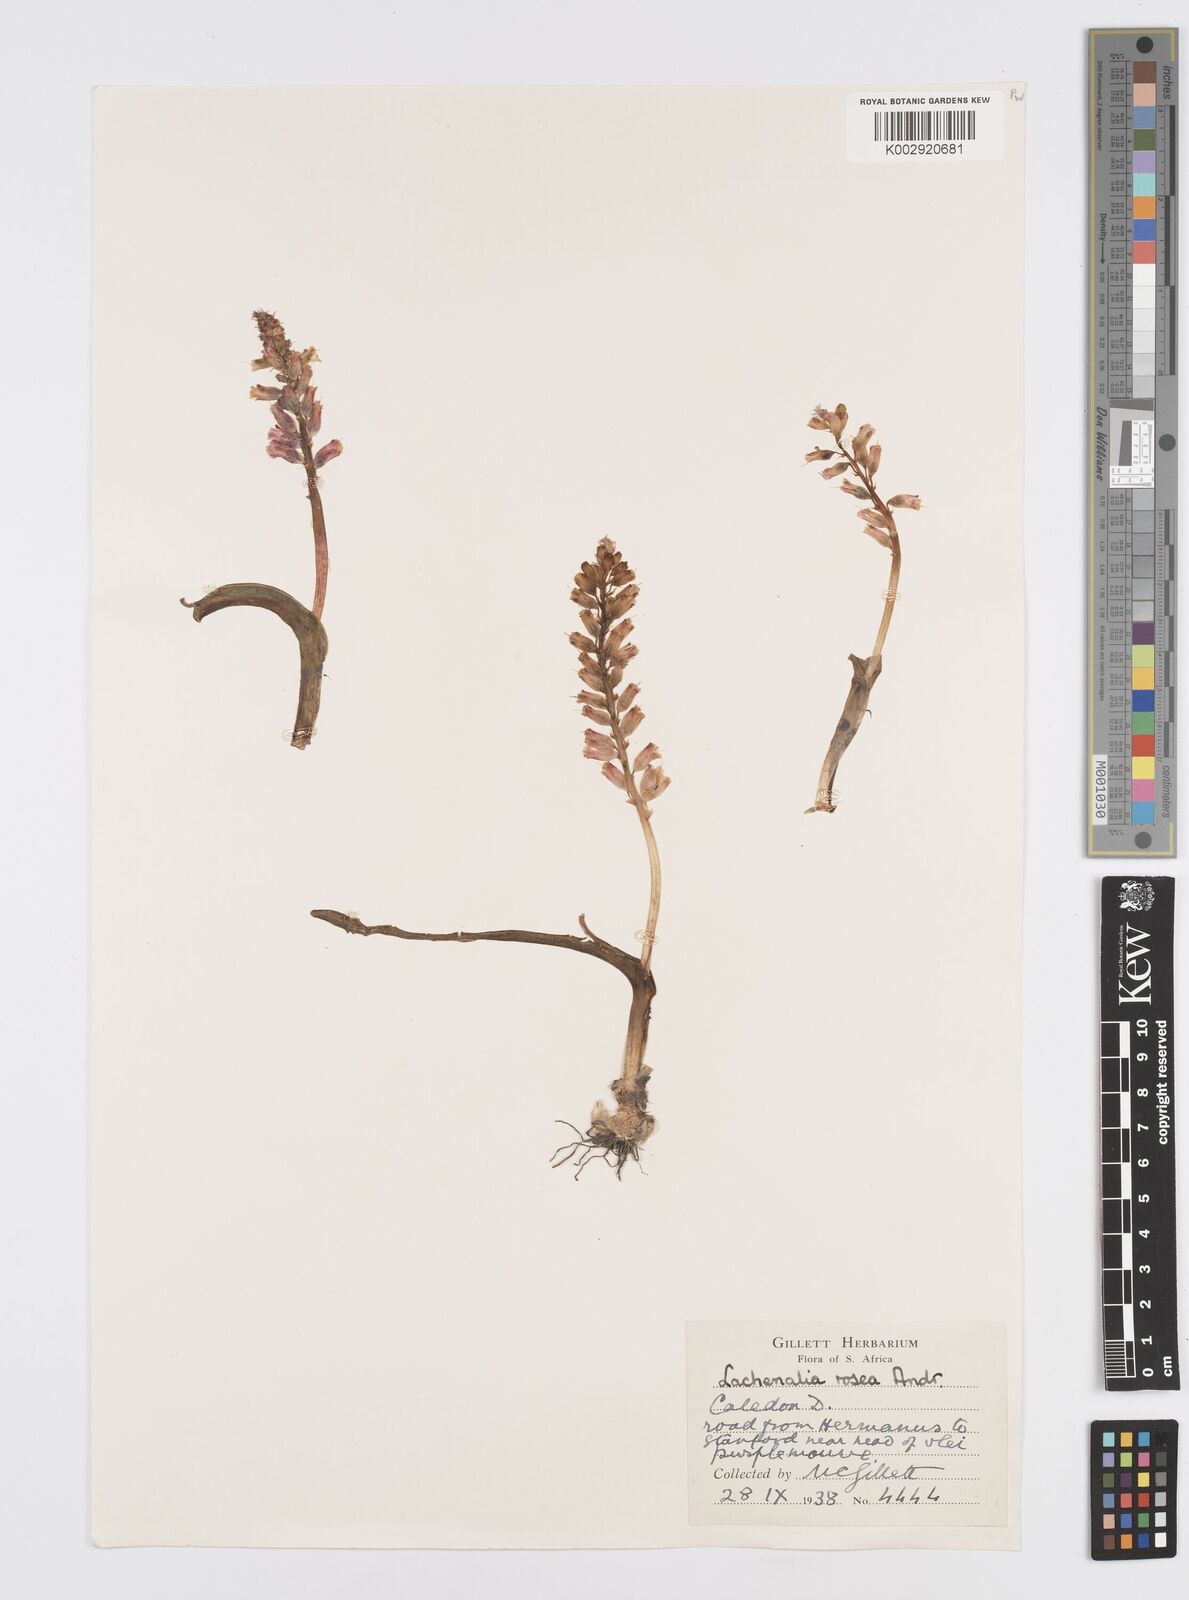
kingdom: Plantae
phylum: Tracheophyta
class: Liliopsida
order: Asparagales
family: Asparagaceae
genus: Lachenalia
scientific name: Lachenalia rosea
